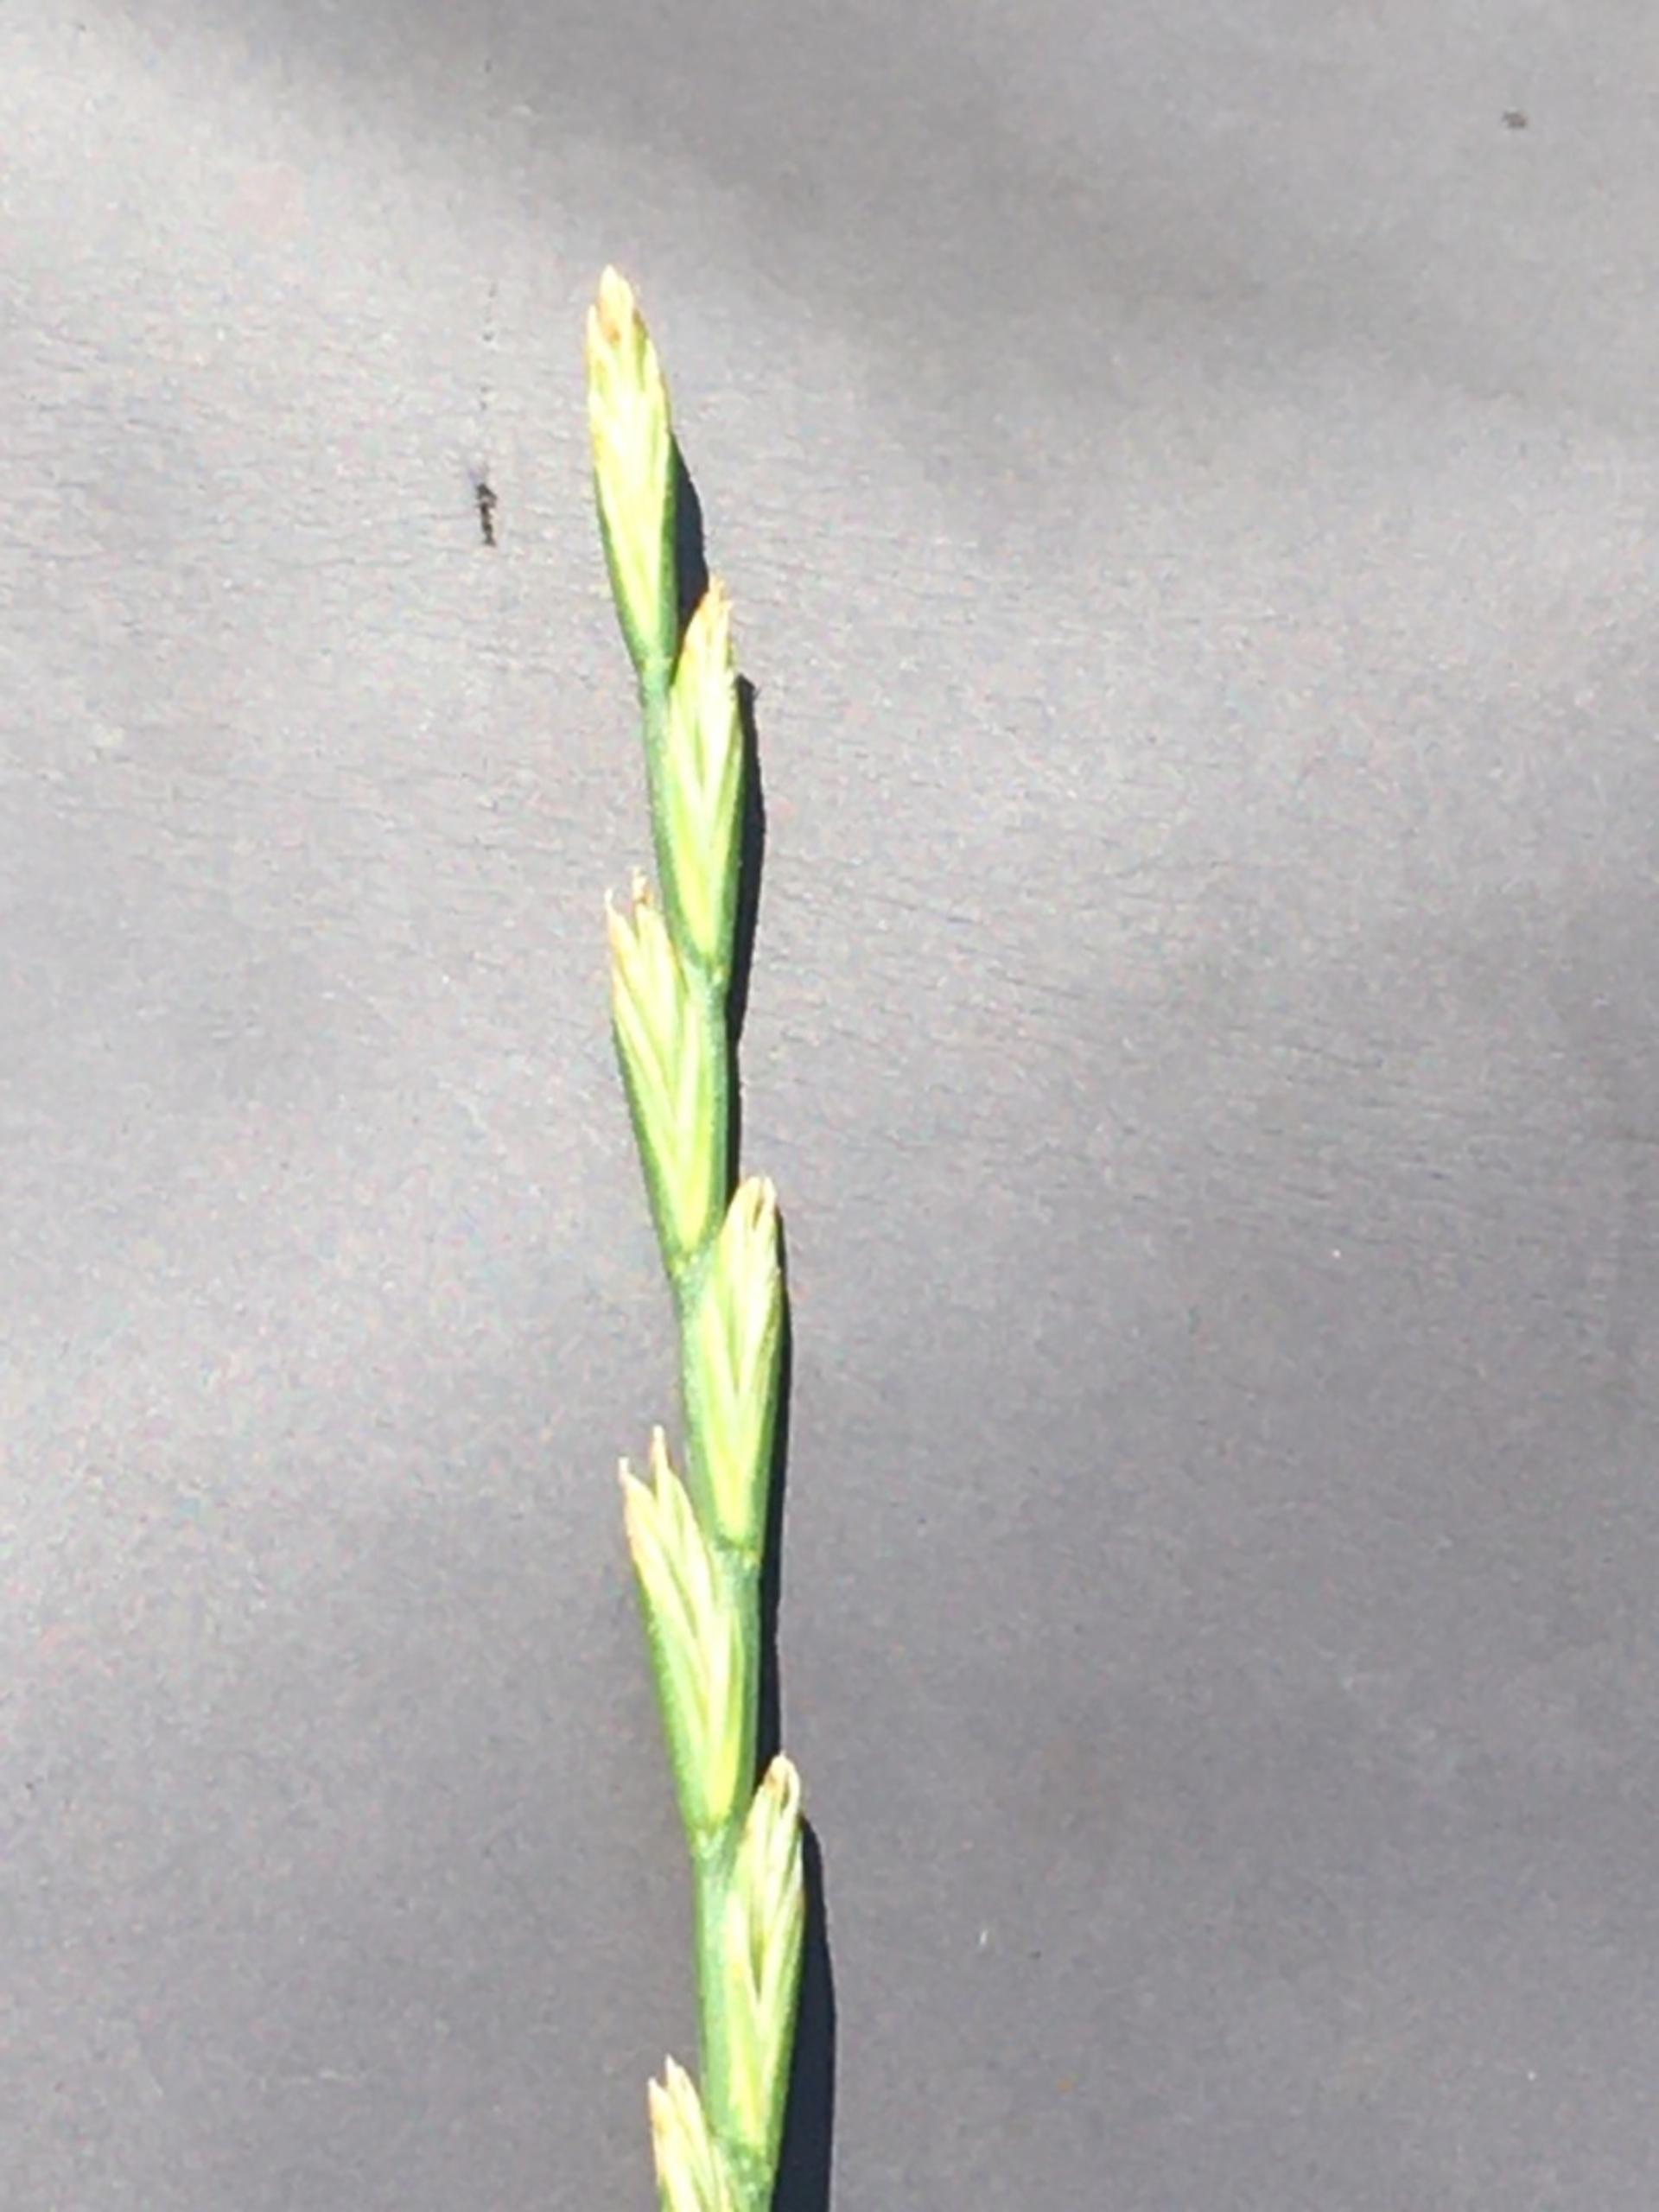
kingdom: Plantae
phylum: Tracheophyta
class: Liliopsida
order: Poales
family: Poaceae
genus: Lolium
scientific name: Lolium perenne
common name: Almindelig rajgræs
